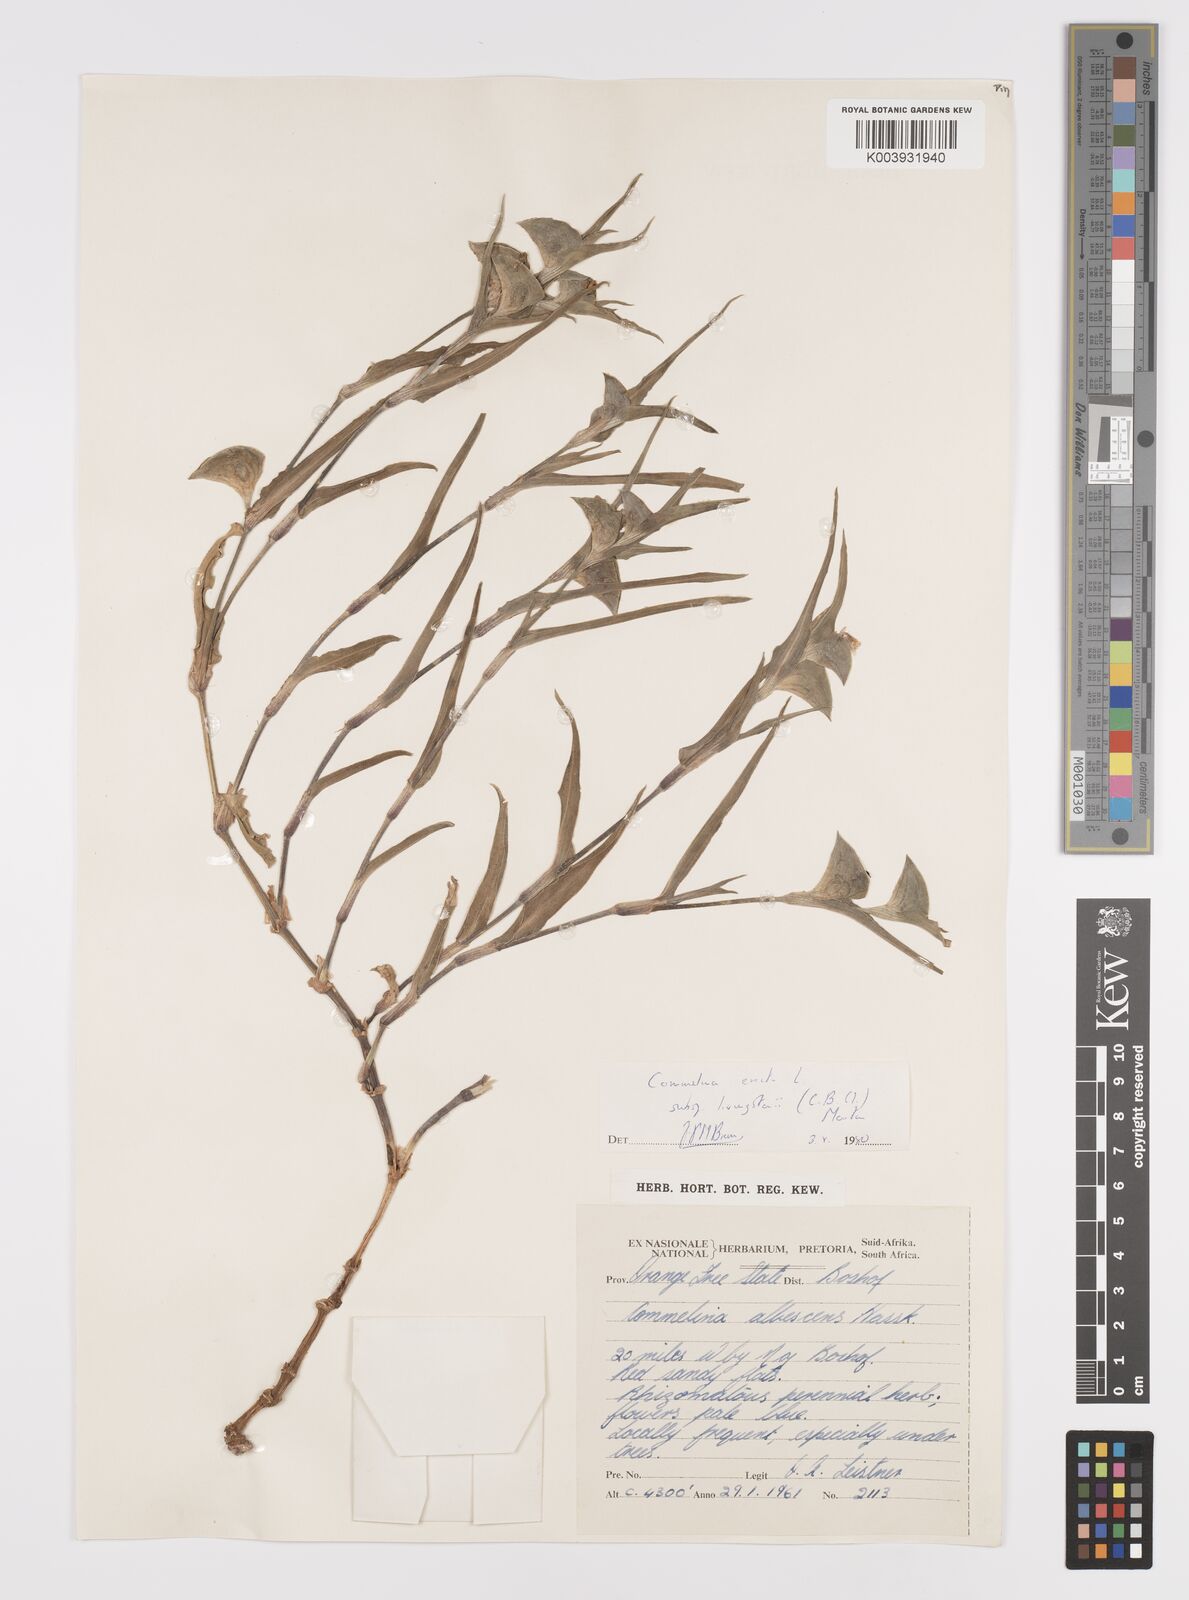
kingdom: Plantae
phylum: Tracheophyta
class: Liliopsida
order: Commelinales
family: Commelinaceae
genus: Commelina
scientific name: Commelina erecta
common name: Blousel blommetjie
